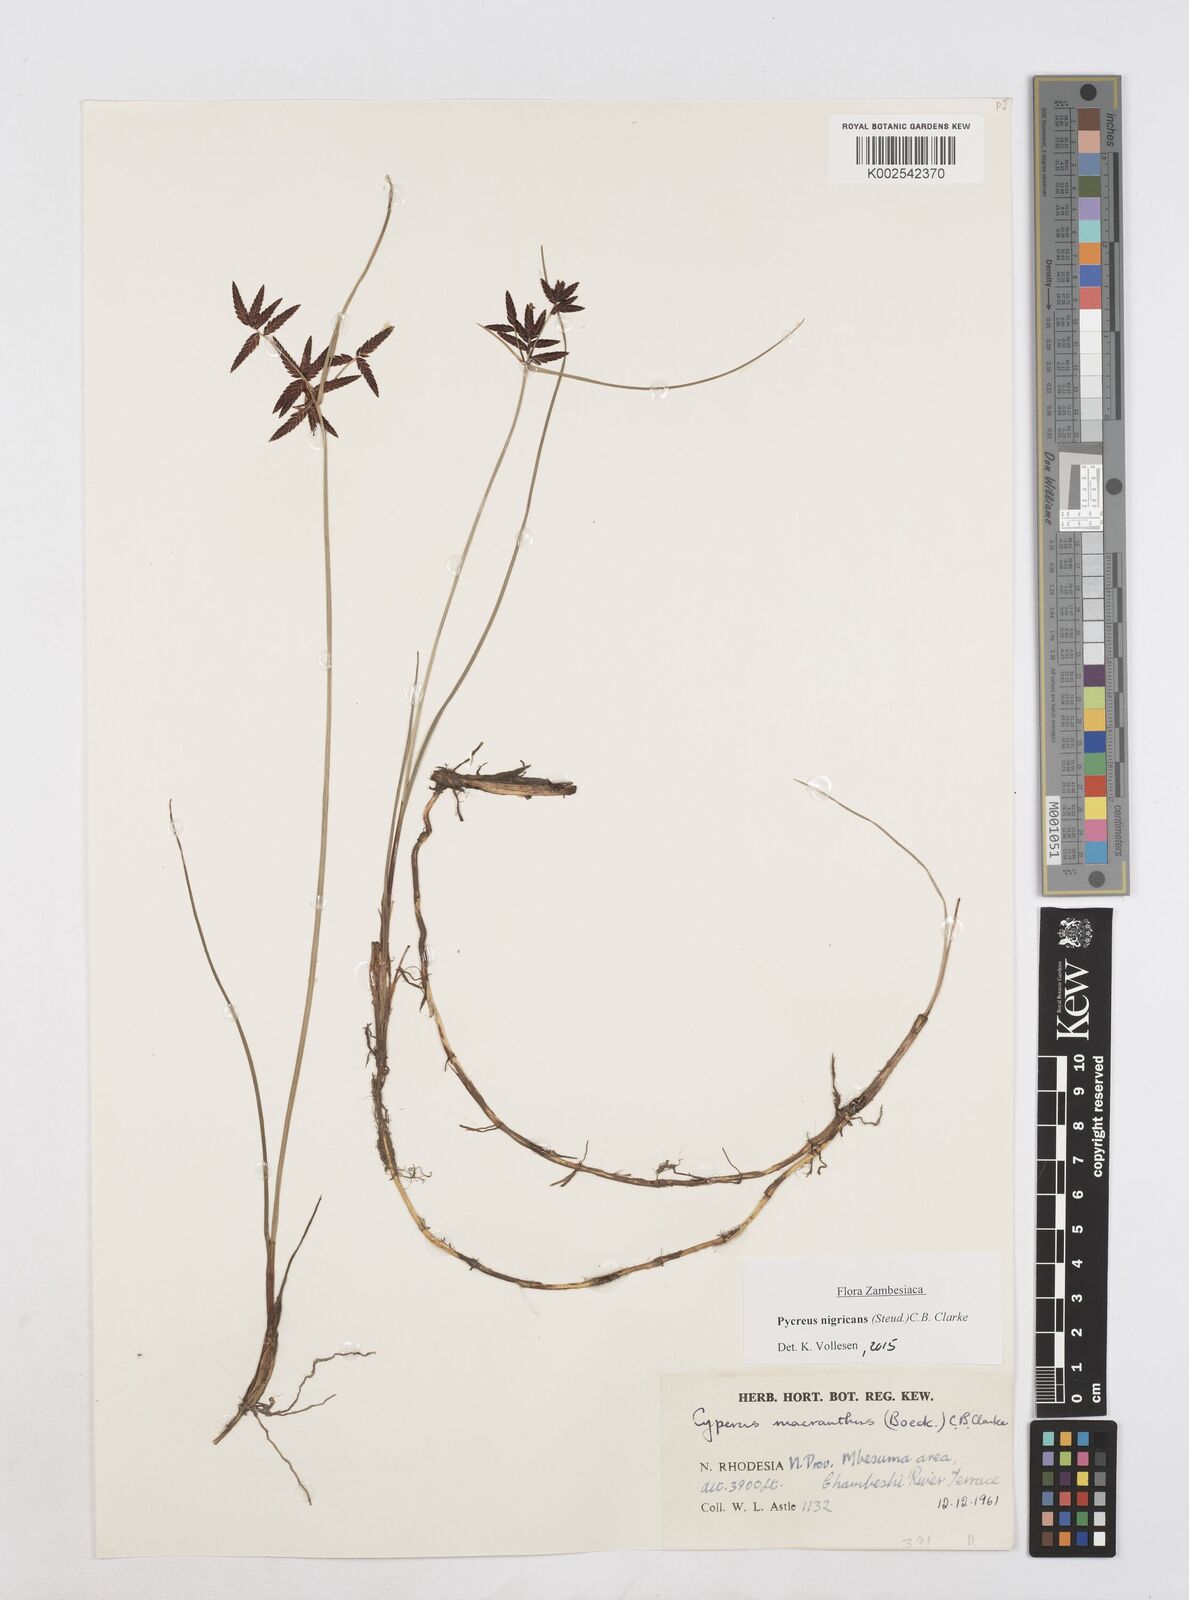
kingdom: Plantae
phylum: Tracheophyta
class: Liliopsida
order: Poales
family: Cyperaceae
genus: Cyperus
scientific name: Cyperus nigricans
